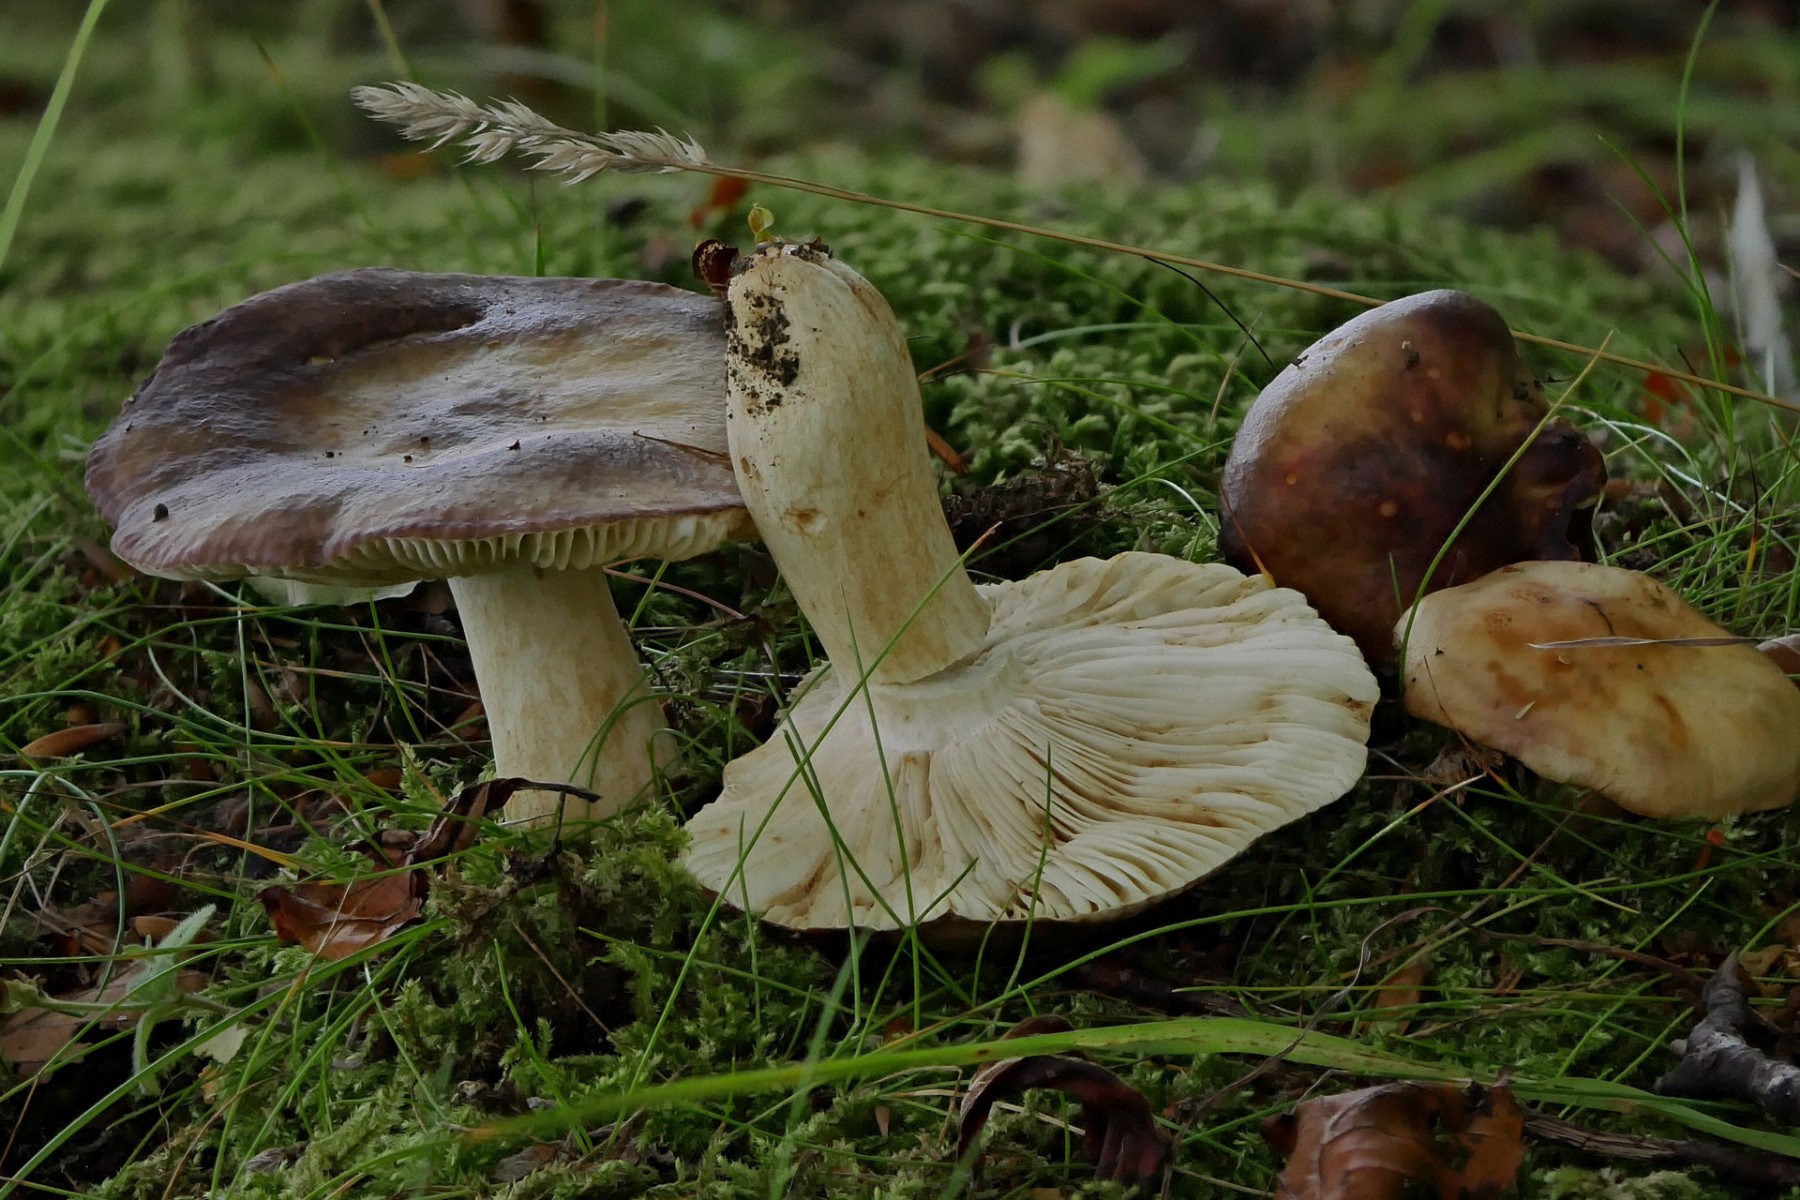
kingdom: Fungi
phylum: Basidiomycota
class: Agaricomycetes
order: Russulales
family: Russulaceae
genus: Russula
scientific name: Russula viscida
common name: knippe-skørhat
